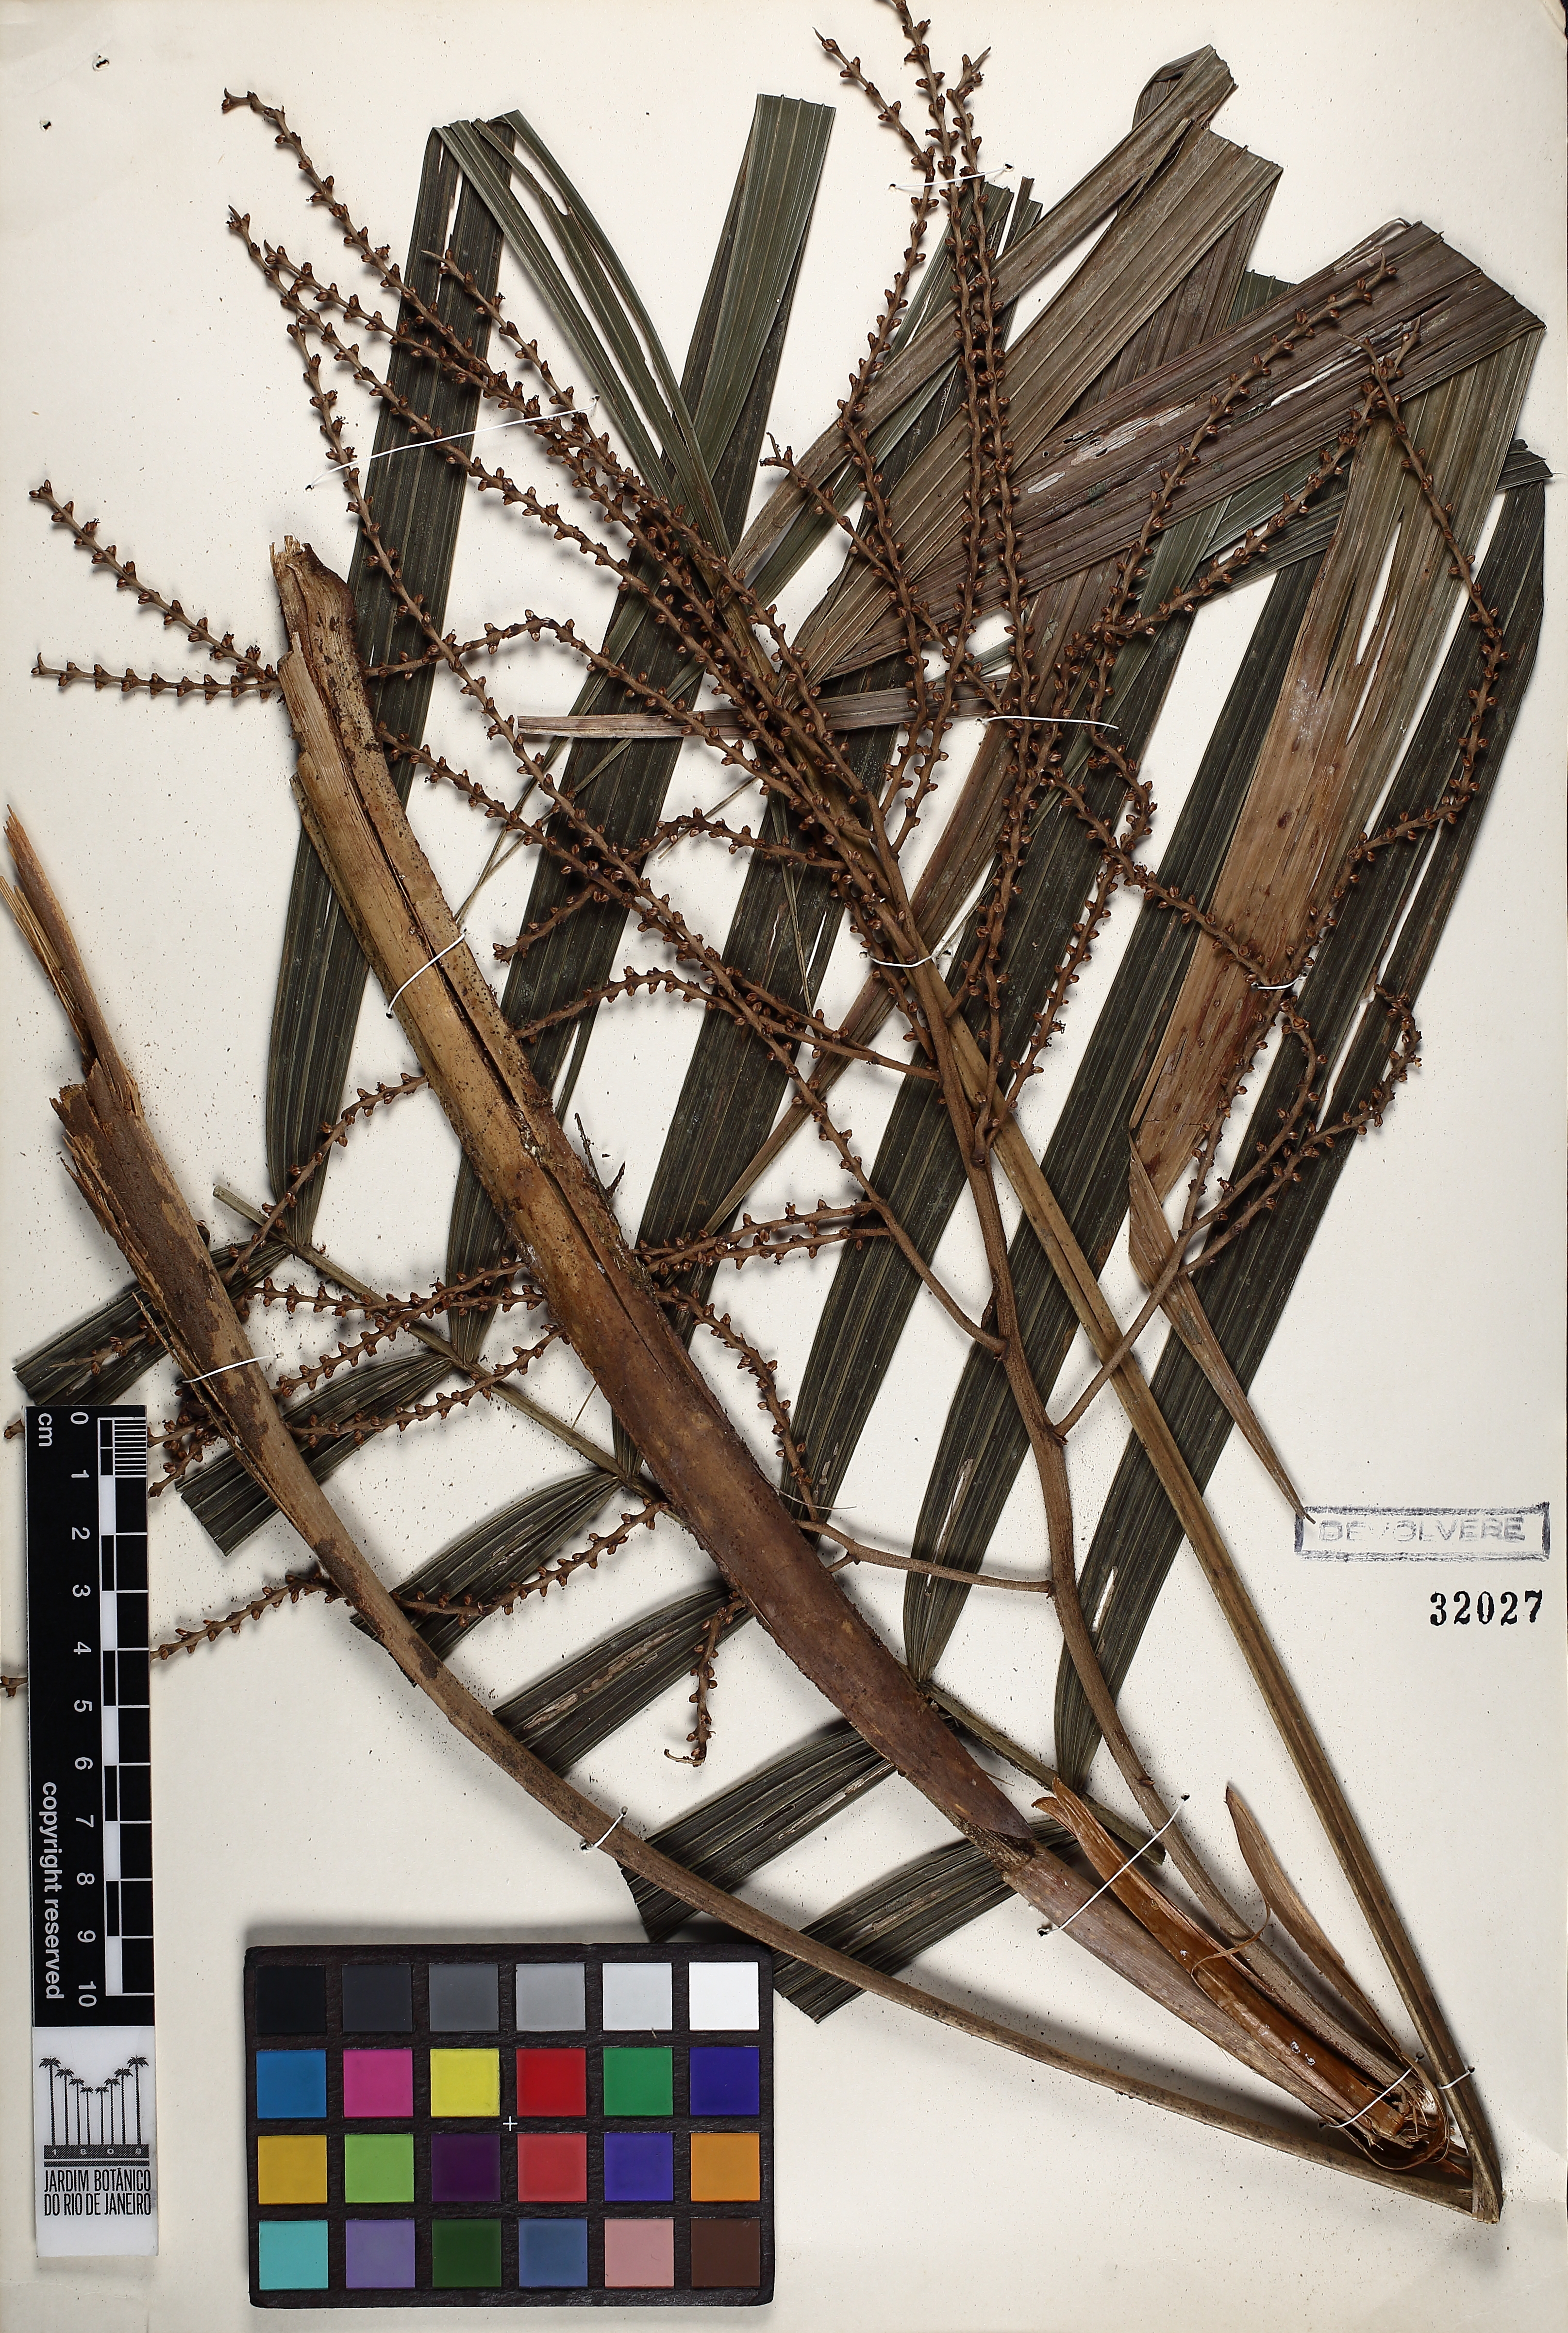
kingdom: Plantae
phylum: Tracheophyta
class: Liliopsida
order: Arecales
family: Arecaceae
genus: Geonoma
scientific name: Geonoma schottiana
